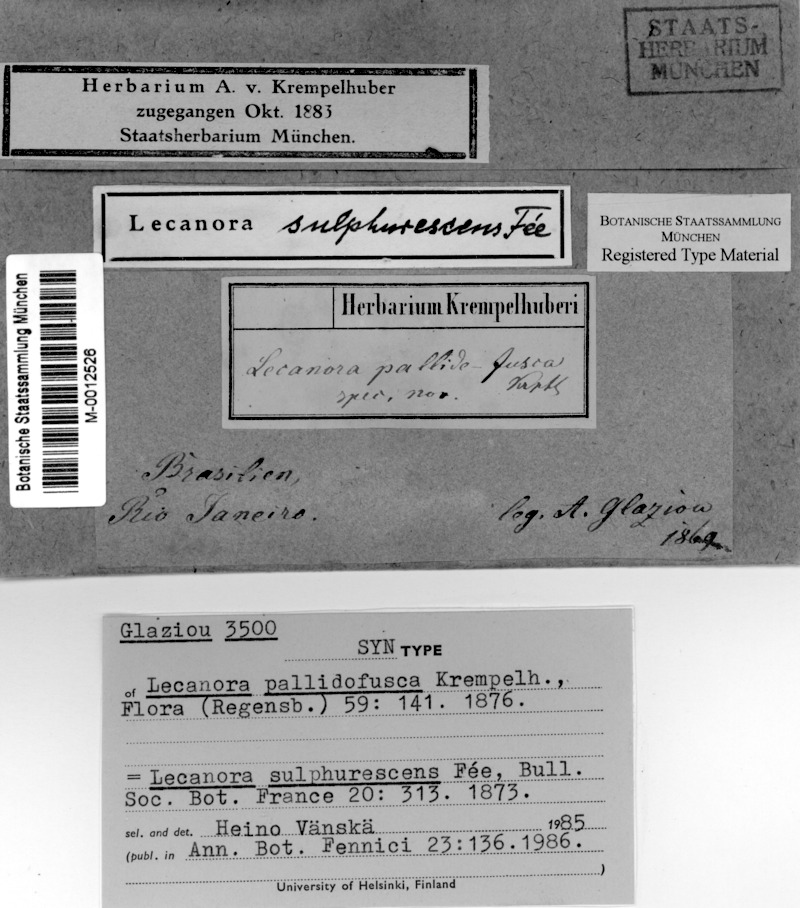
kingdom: Fungi
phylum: Ascomycota
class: Lecanoromycetes
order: Lecanorales
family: Lecanoraceae
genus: Lecanora
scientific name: Lecanora sulphurescens
